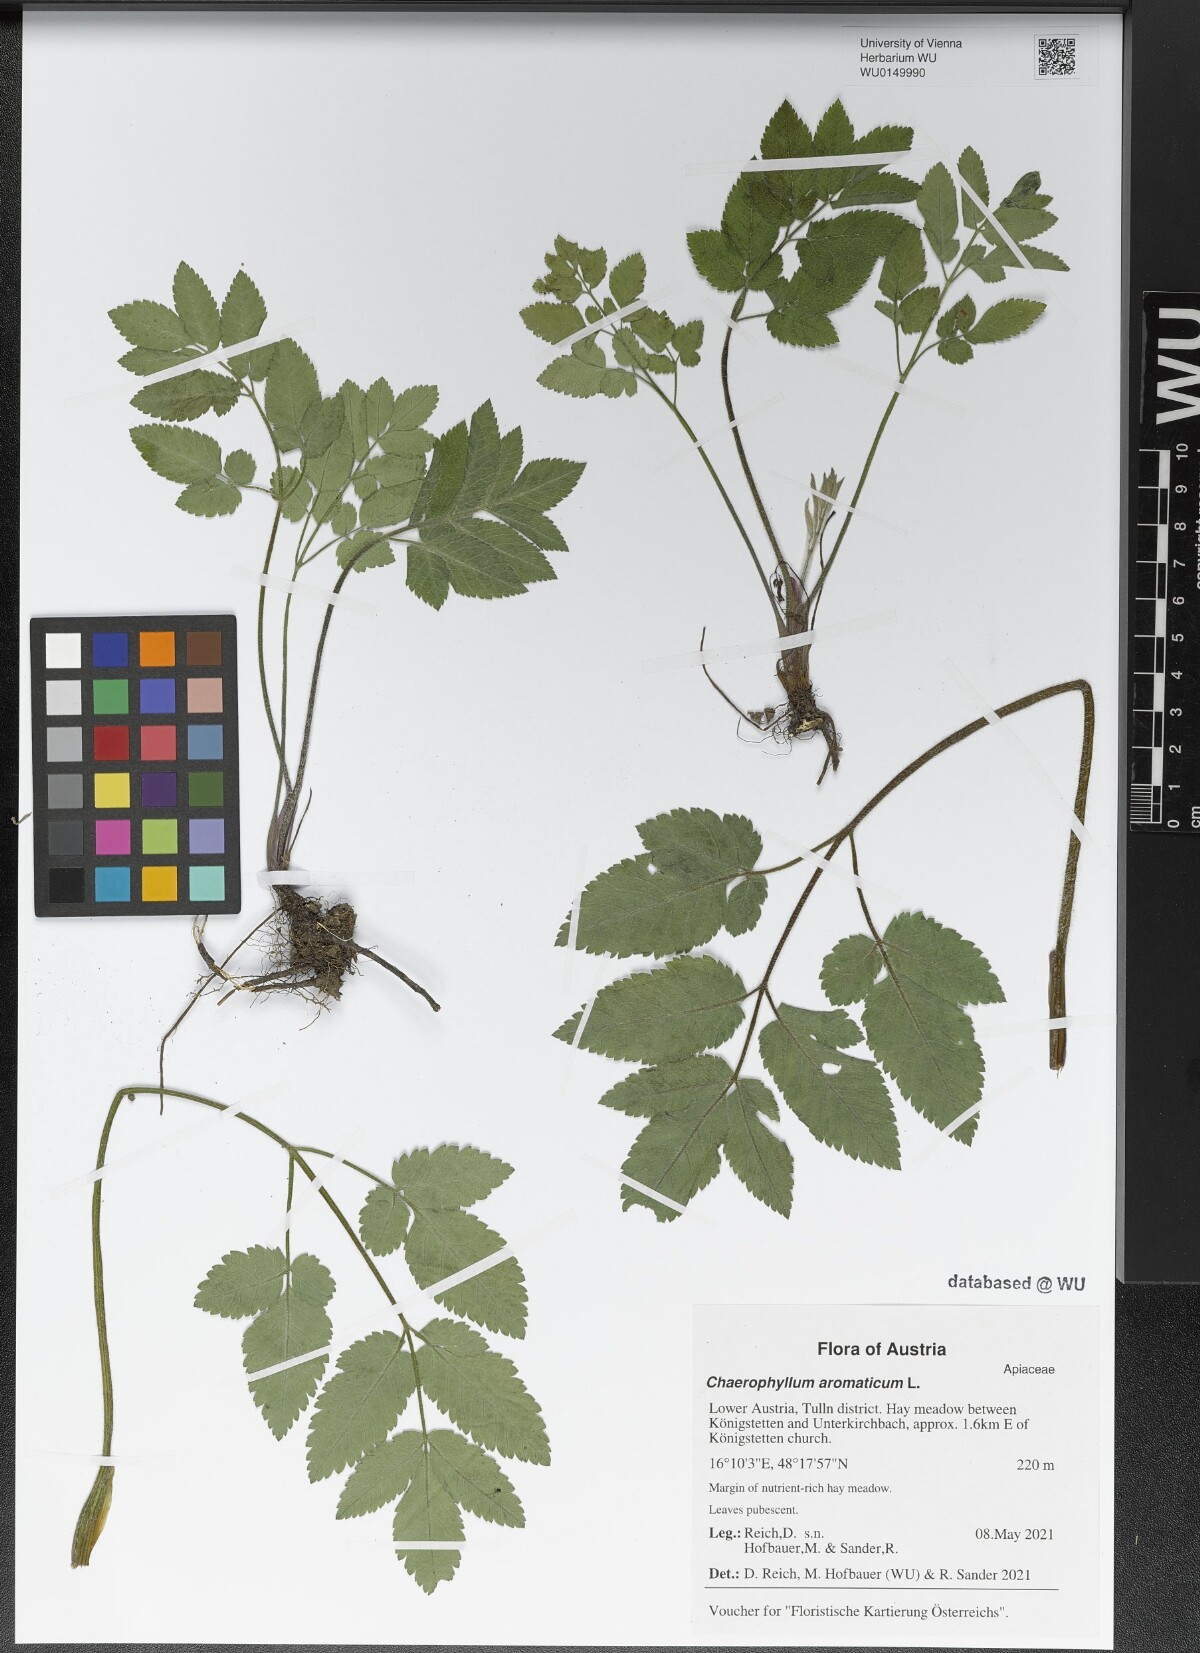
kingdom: Plantae
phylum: Tracheophyta
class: Magnoliopsida
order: Apiales
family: Apiaceae
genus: Chaerophyllum
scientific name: Chaerophyllum aromaticum
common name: Broadleaf chervil
